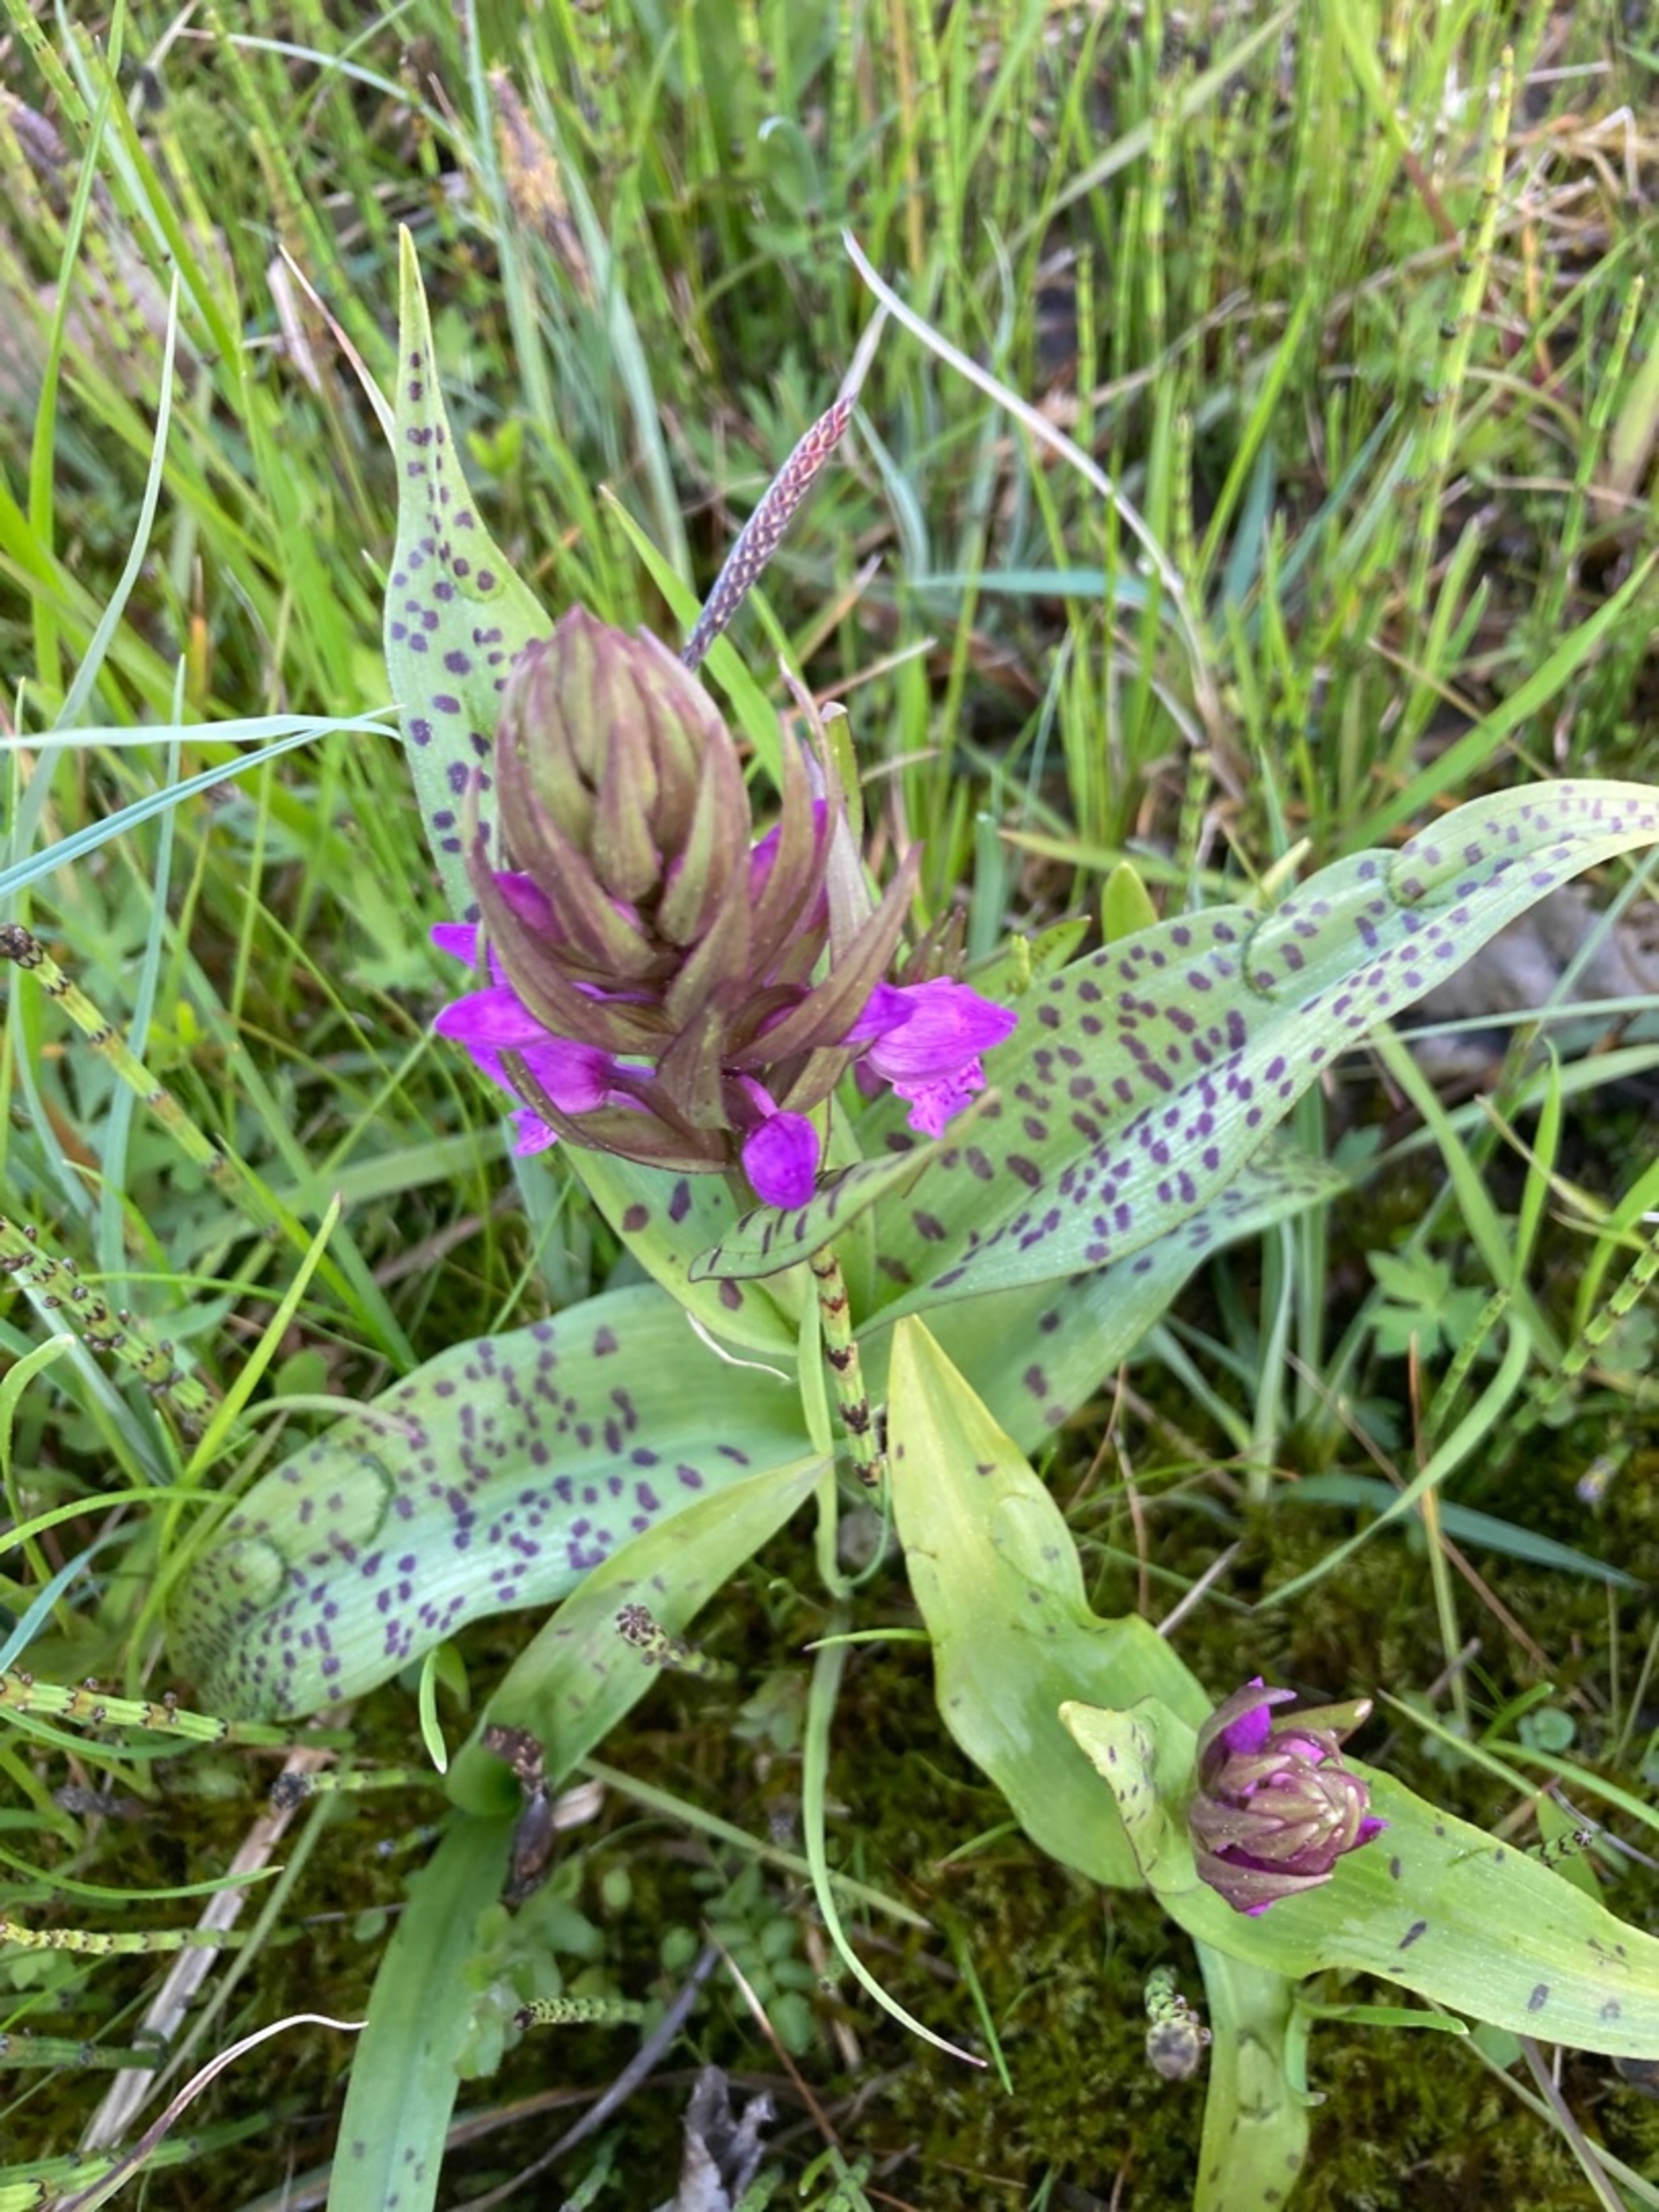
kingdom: Plantae
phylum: Tracheophyta
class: Liliopsida
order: Asparagales
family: Orchidaceae
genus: Dactylorhiza
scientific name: Dactylorhiza majalis
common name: Maj-gøgeurt
